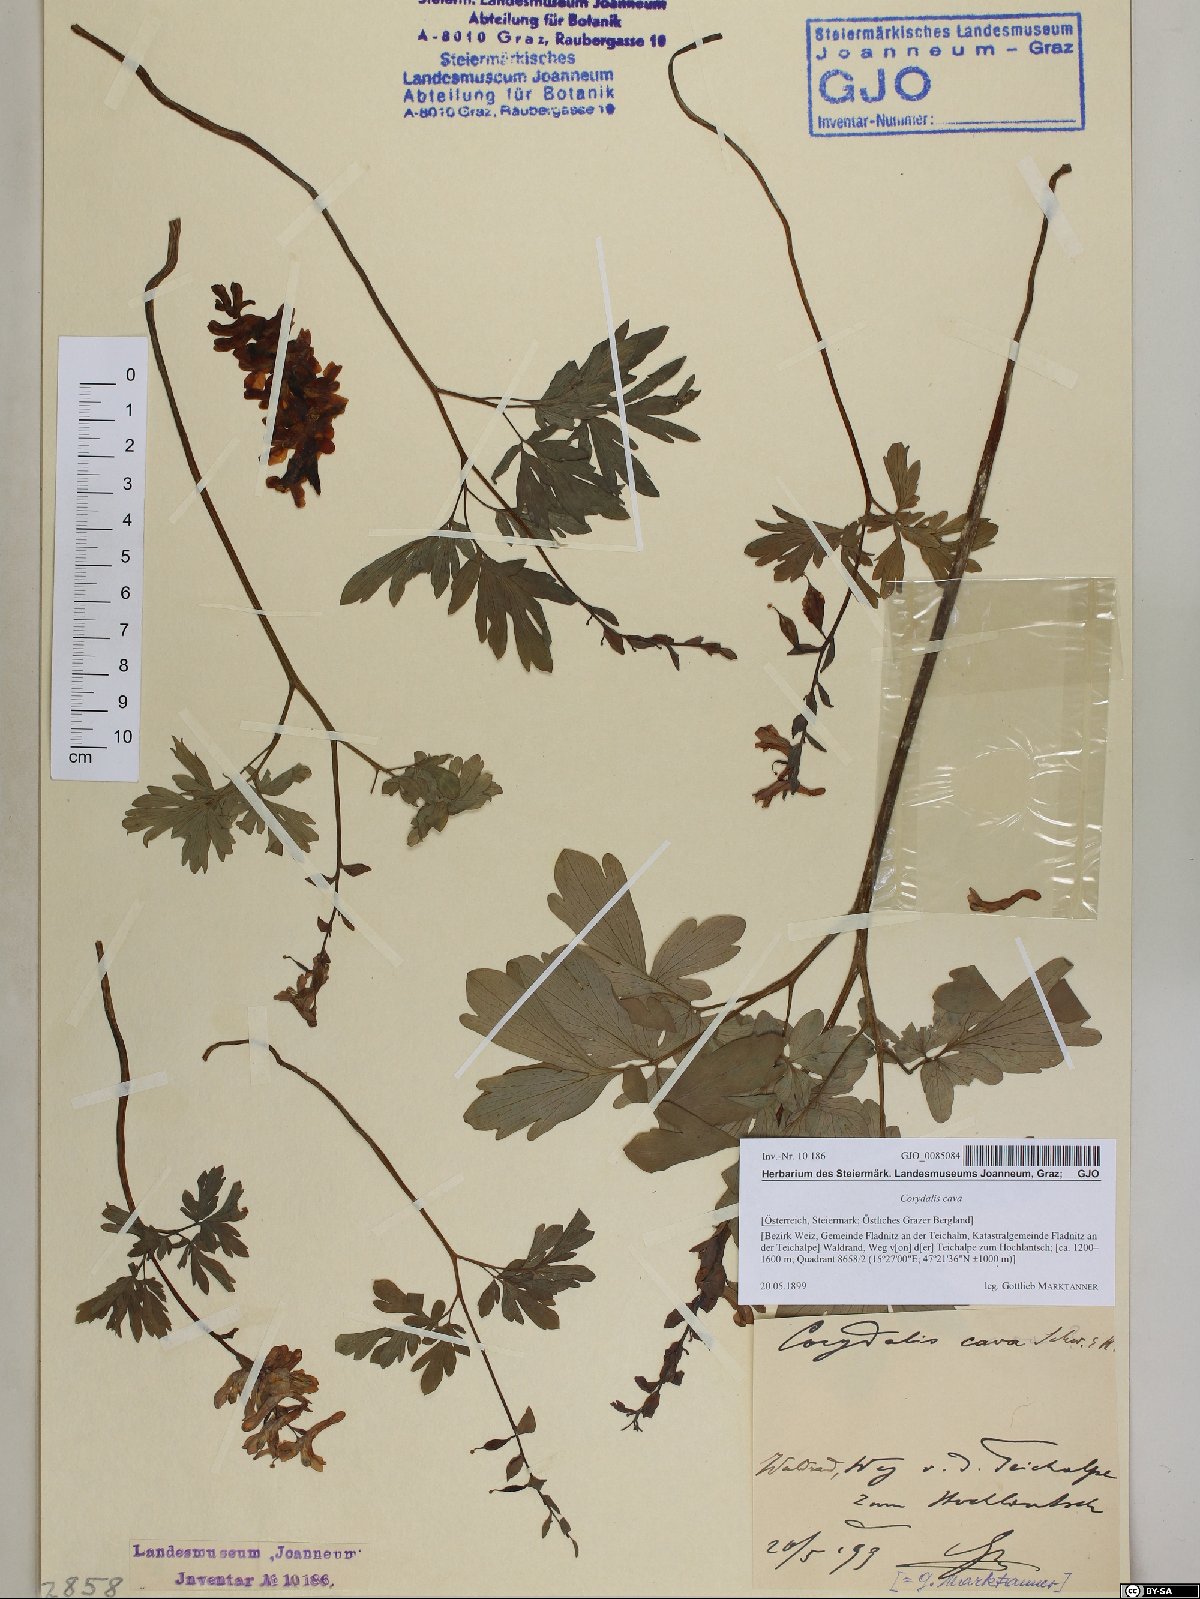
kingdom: Plantae
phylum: Tracheophyta
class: Magnoliopsida
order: Ranunculales
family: Papaveraceae
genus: Corydalis
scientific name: Corydalis cava
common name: Hollowroot
